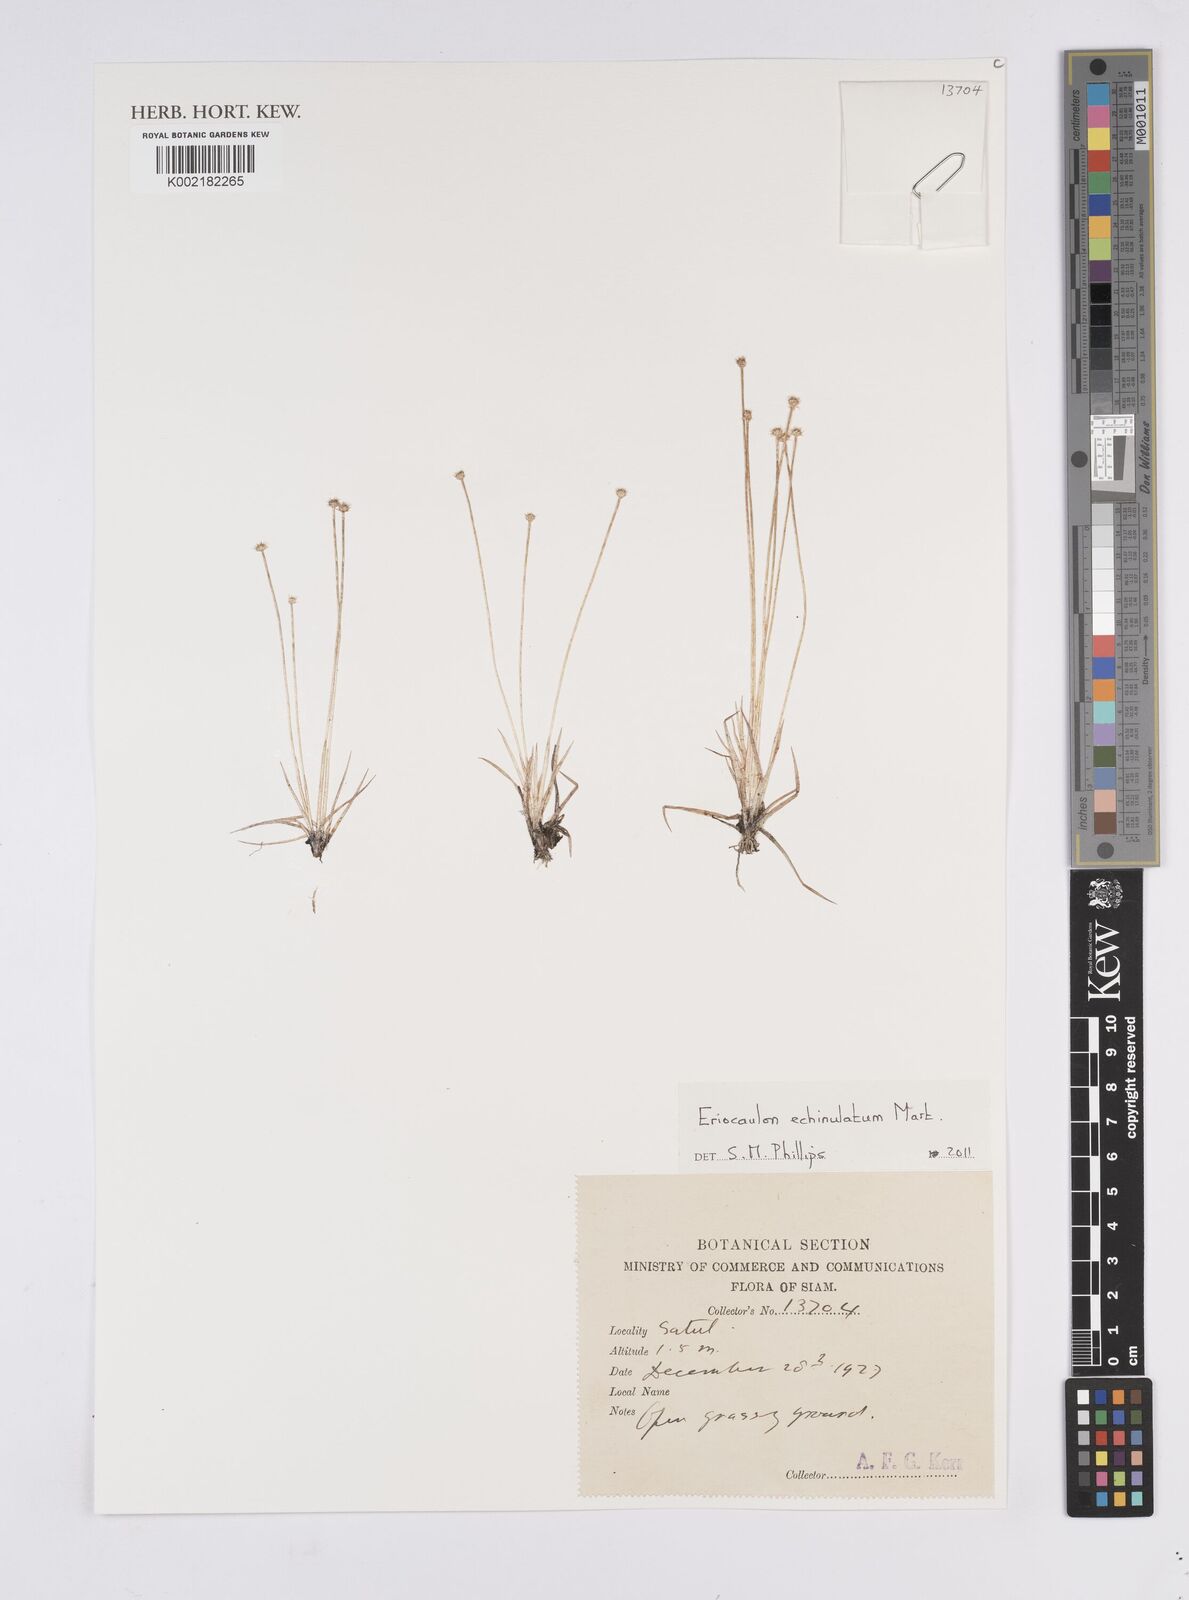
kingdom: Plantae
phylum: Tracheophyta
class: Liliopsida
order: Poales
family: Eriocaulaceae
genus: Eriocaulon
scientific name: Eriocaulon echinulatum
